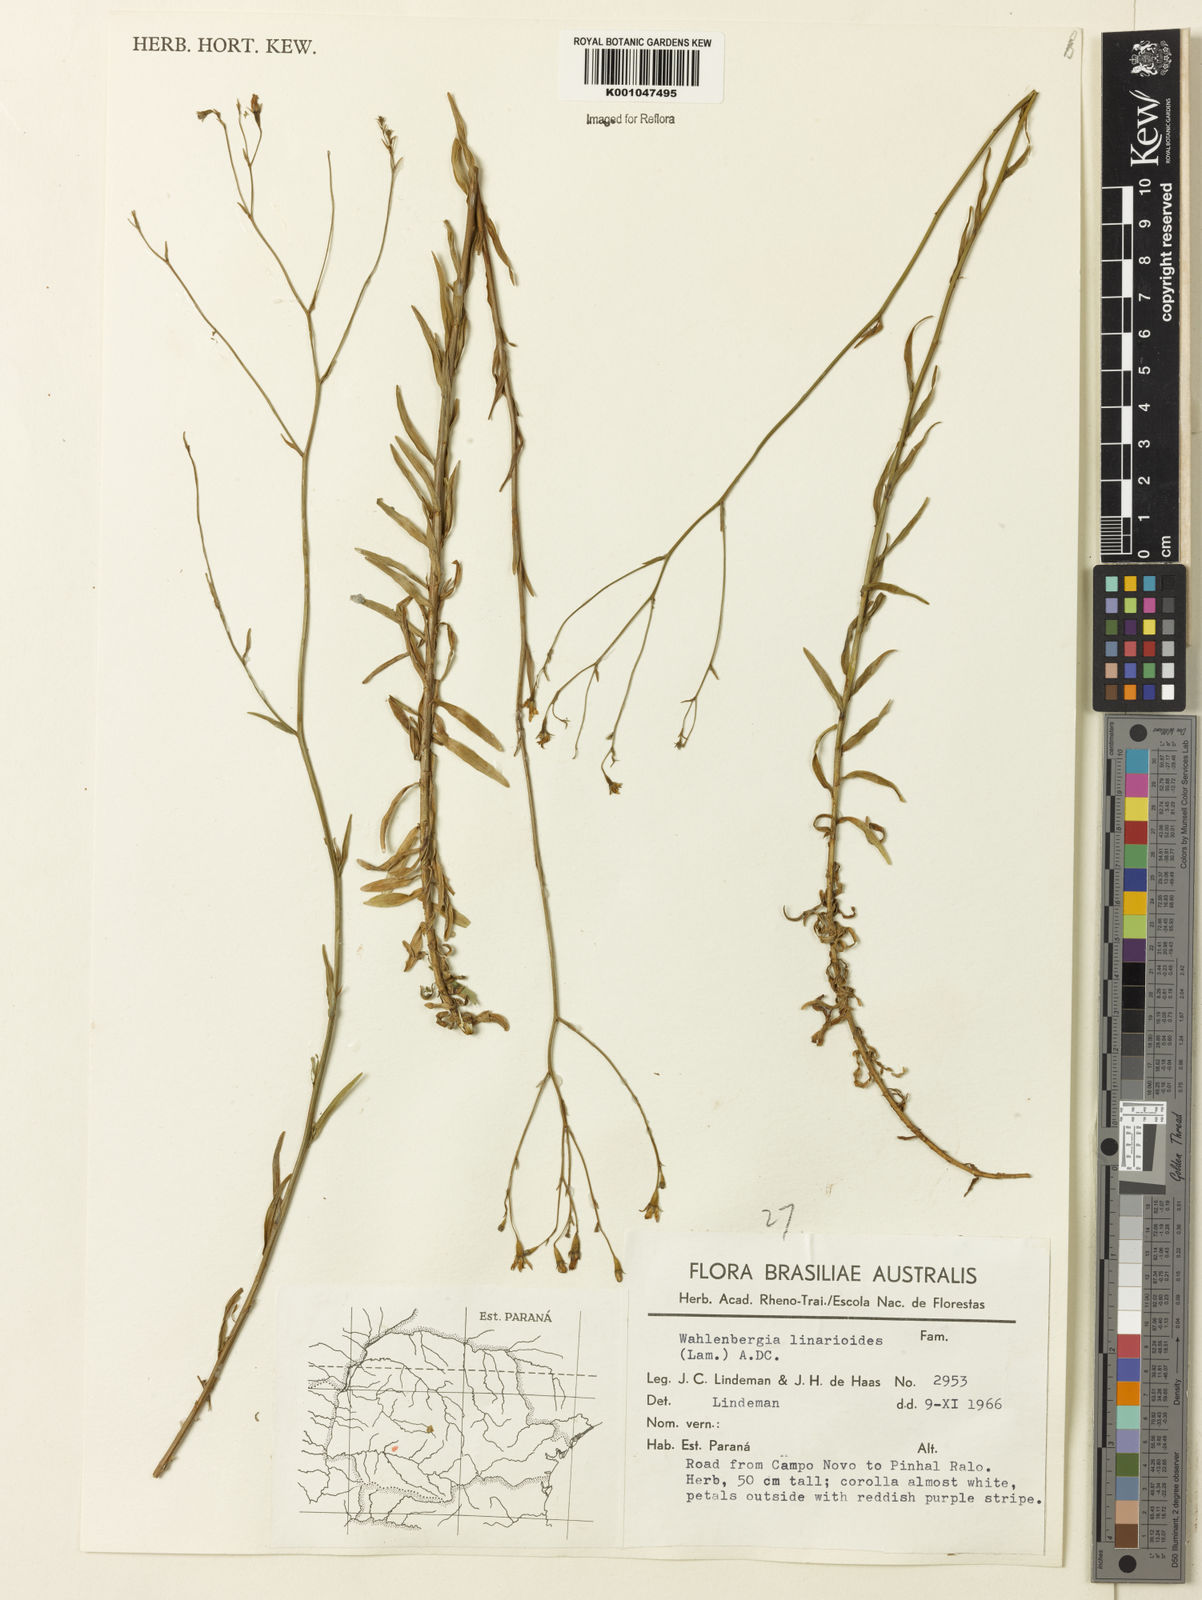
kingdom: Plantae
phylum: Tracheophyta
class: Magnoliopsida
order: Asterales
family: Campanulaceae
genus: Wahlenbergia
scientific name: Wahlenbergia linarioides
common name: Tuffybells
